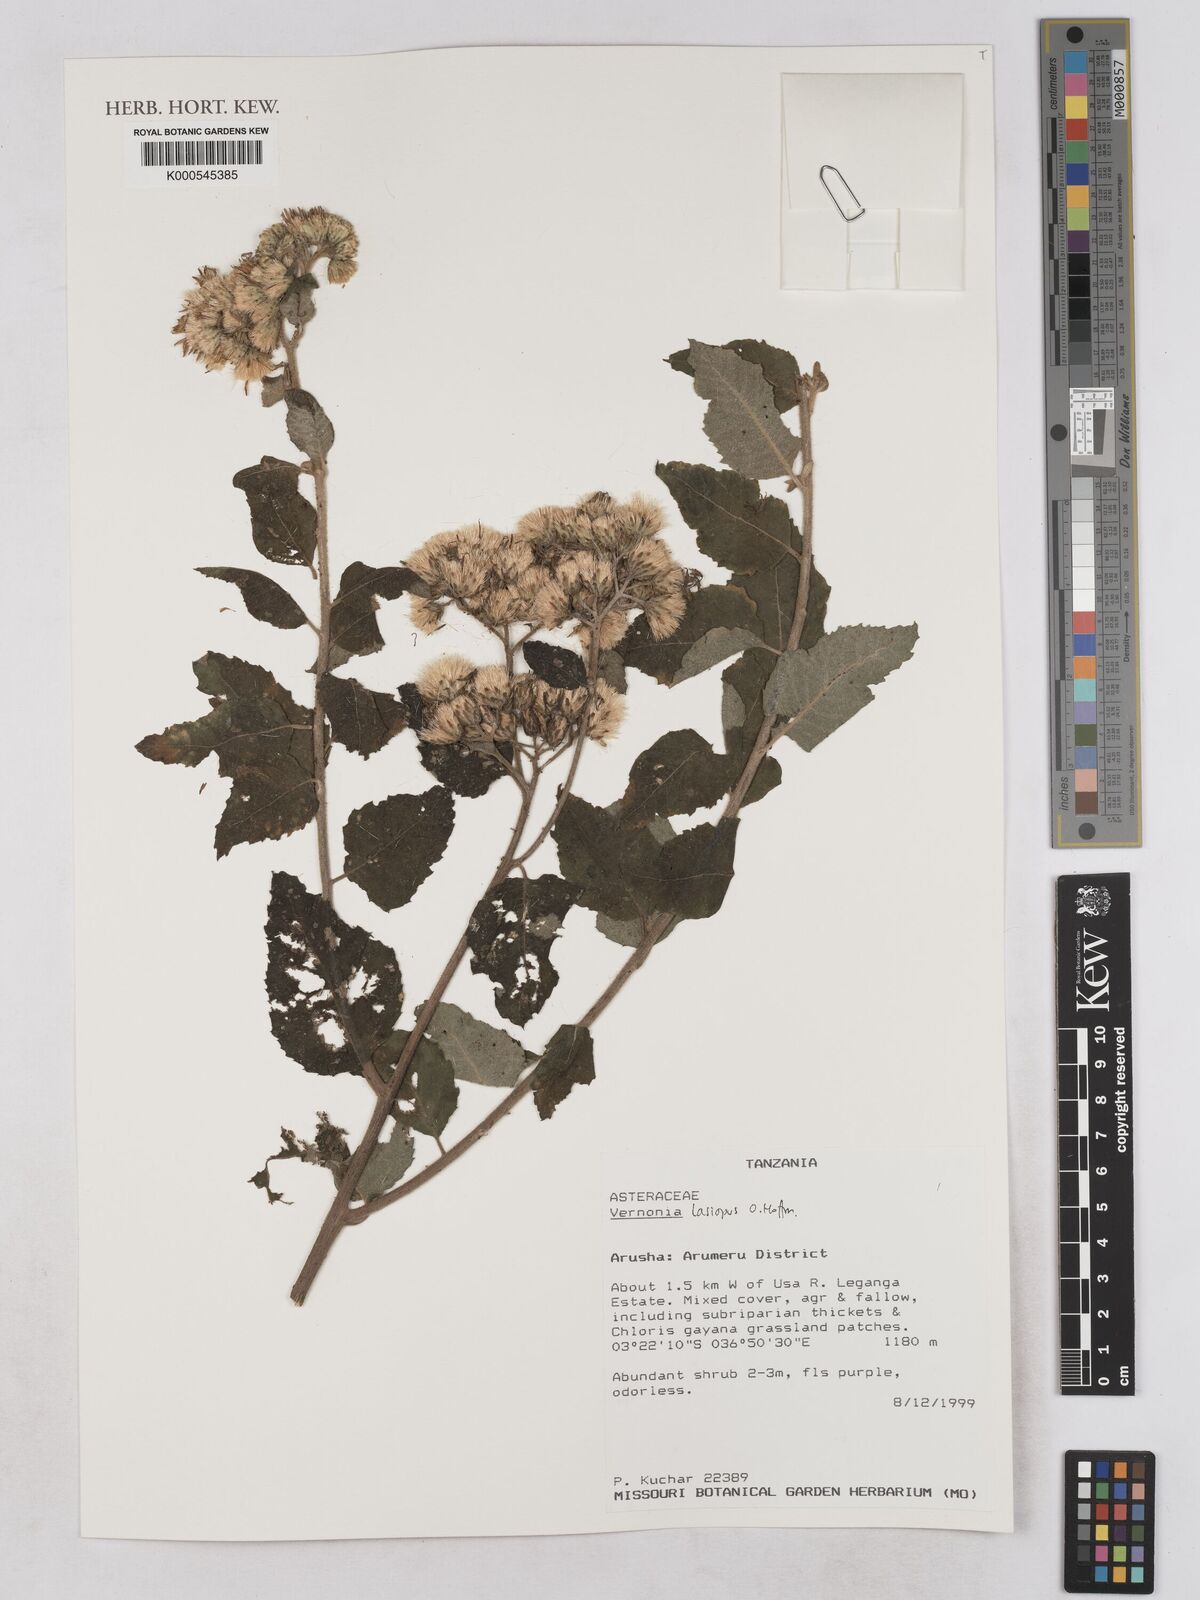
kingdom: Plantae
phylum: Tracheophyta
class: Magnoliopsida
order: Asterales
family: Asteraceae
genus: Baccharoides
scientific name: Baccharoides lasiopus
